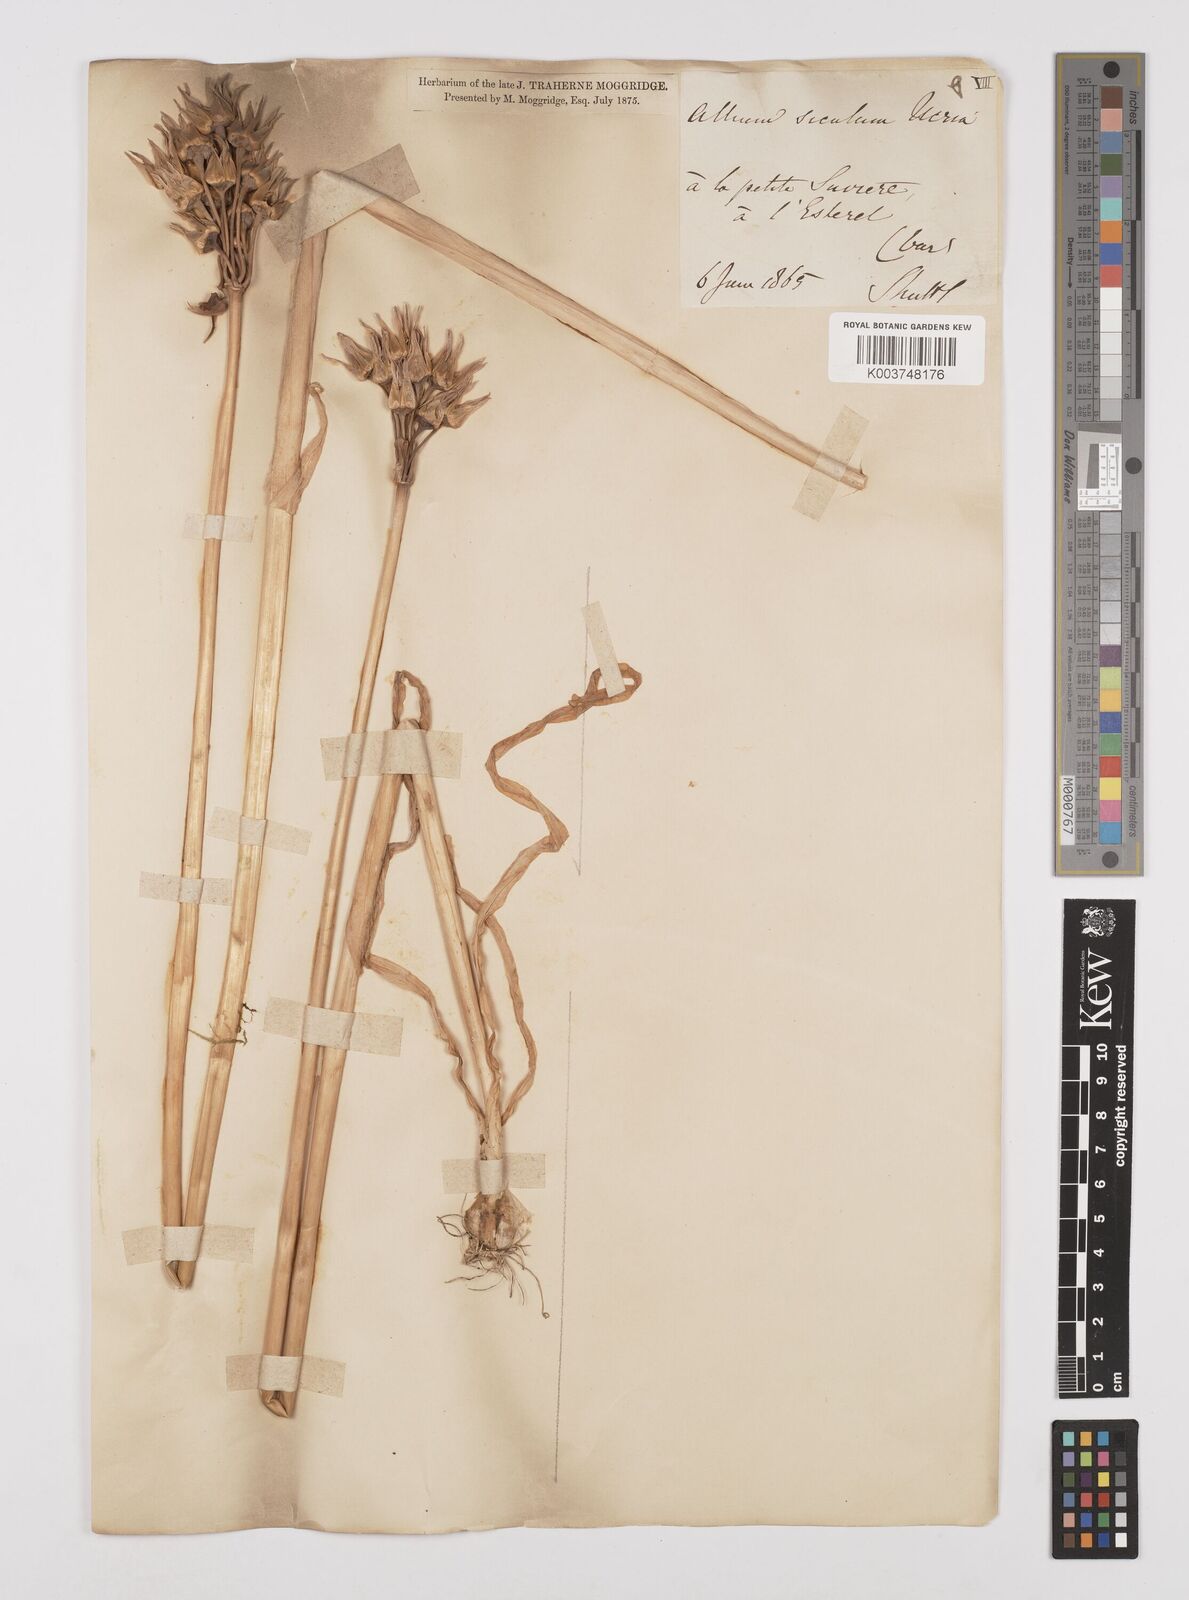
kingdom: Plantae
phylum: Tracheophyta
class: Liliopsida
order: Asparagales
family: Amaryllidaceae
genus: Allium
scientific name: Allium siculum
